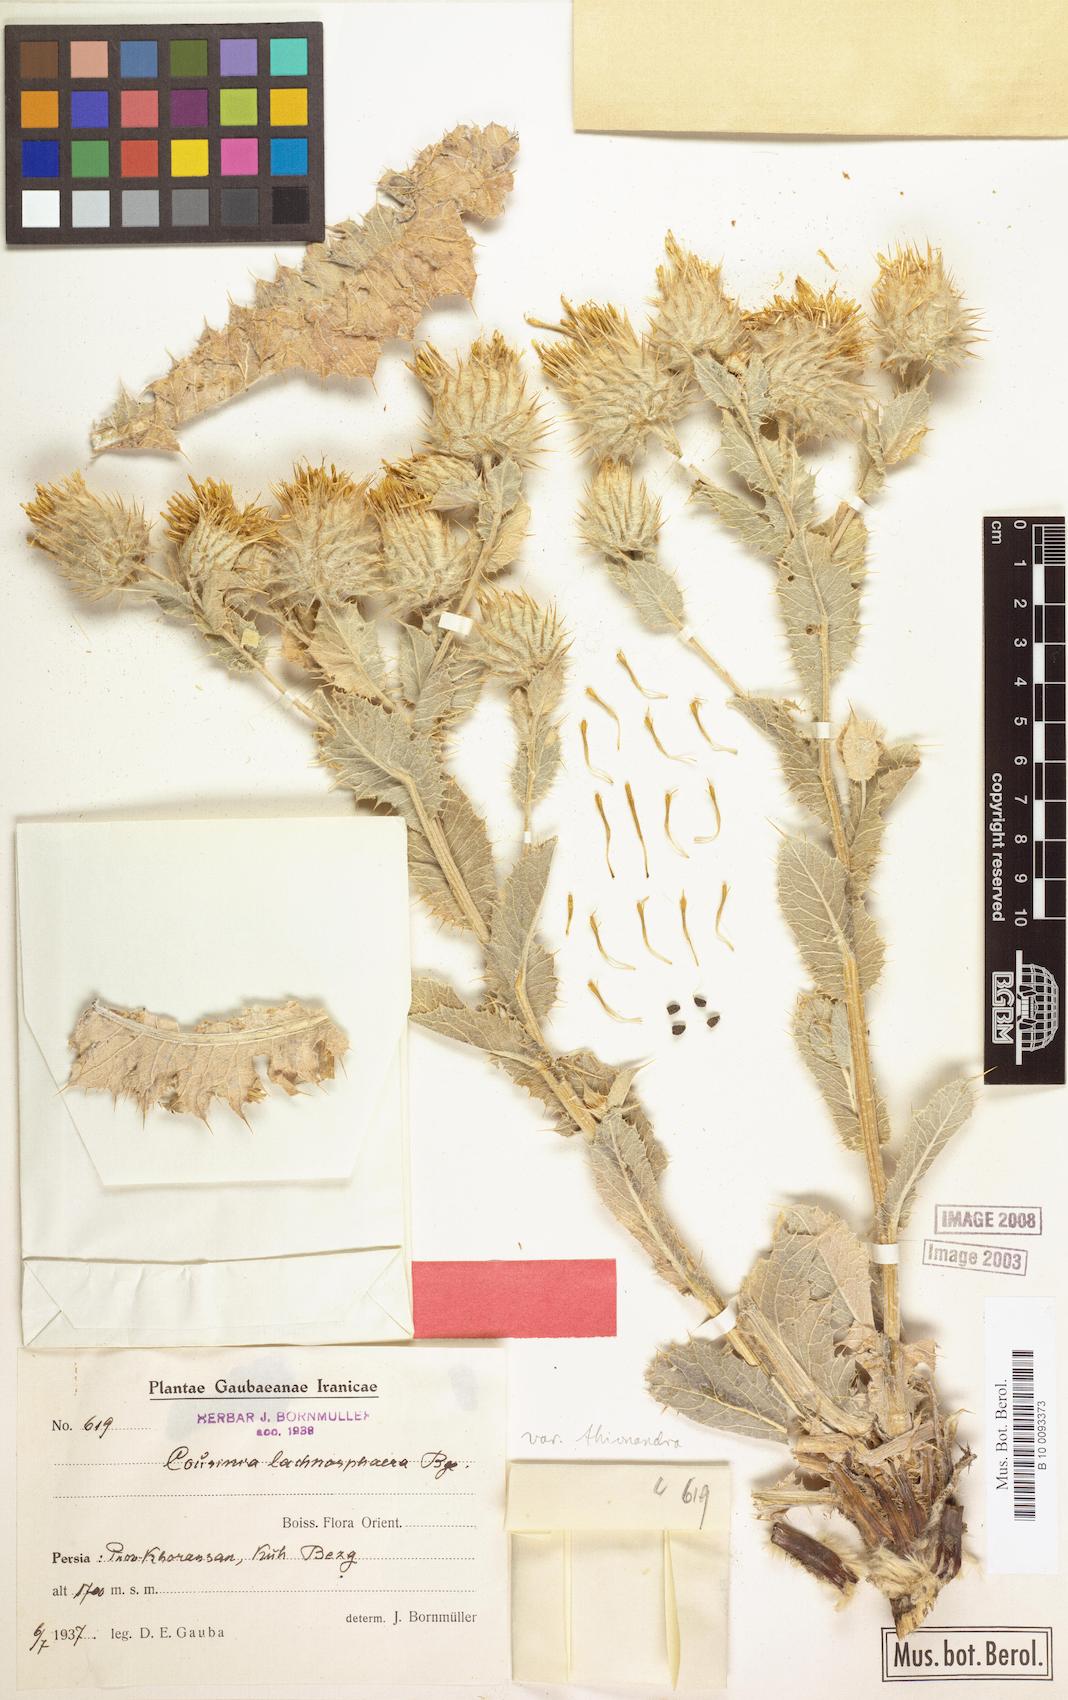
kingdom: Plantae
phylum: Tracheophyta
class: Magnoliopsida
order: Asterales
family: Asteraceae
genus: Cousinia
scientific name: Cousinia lachnosphaera
